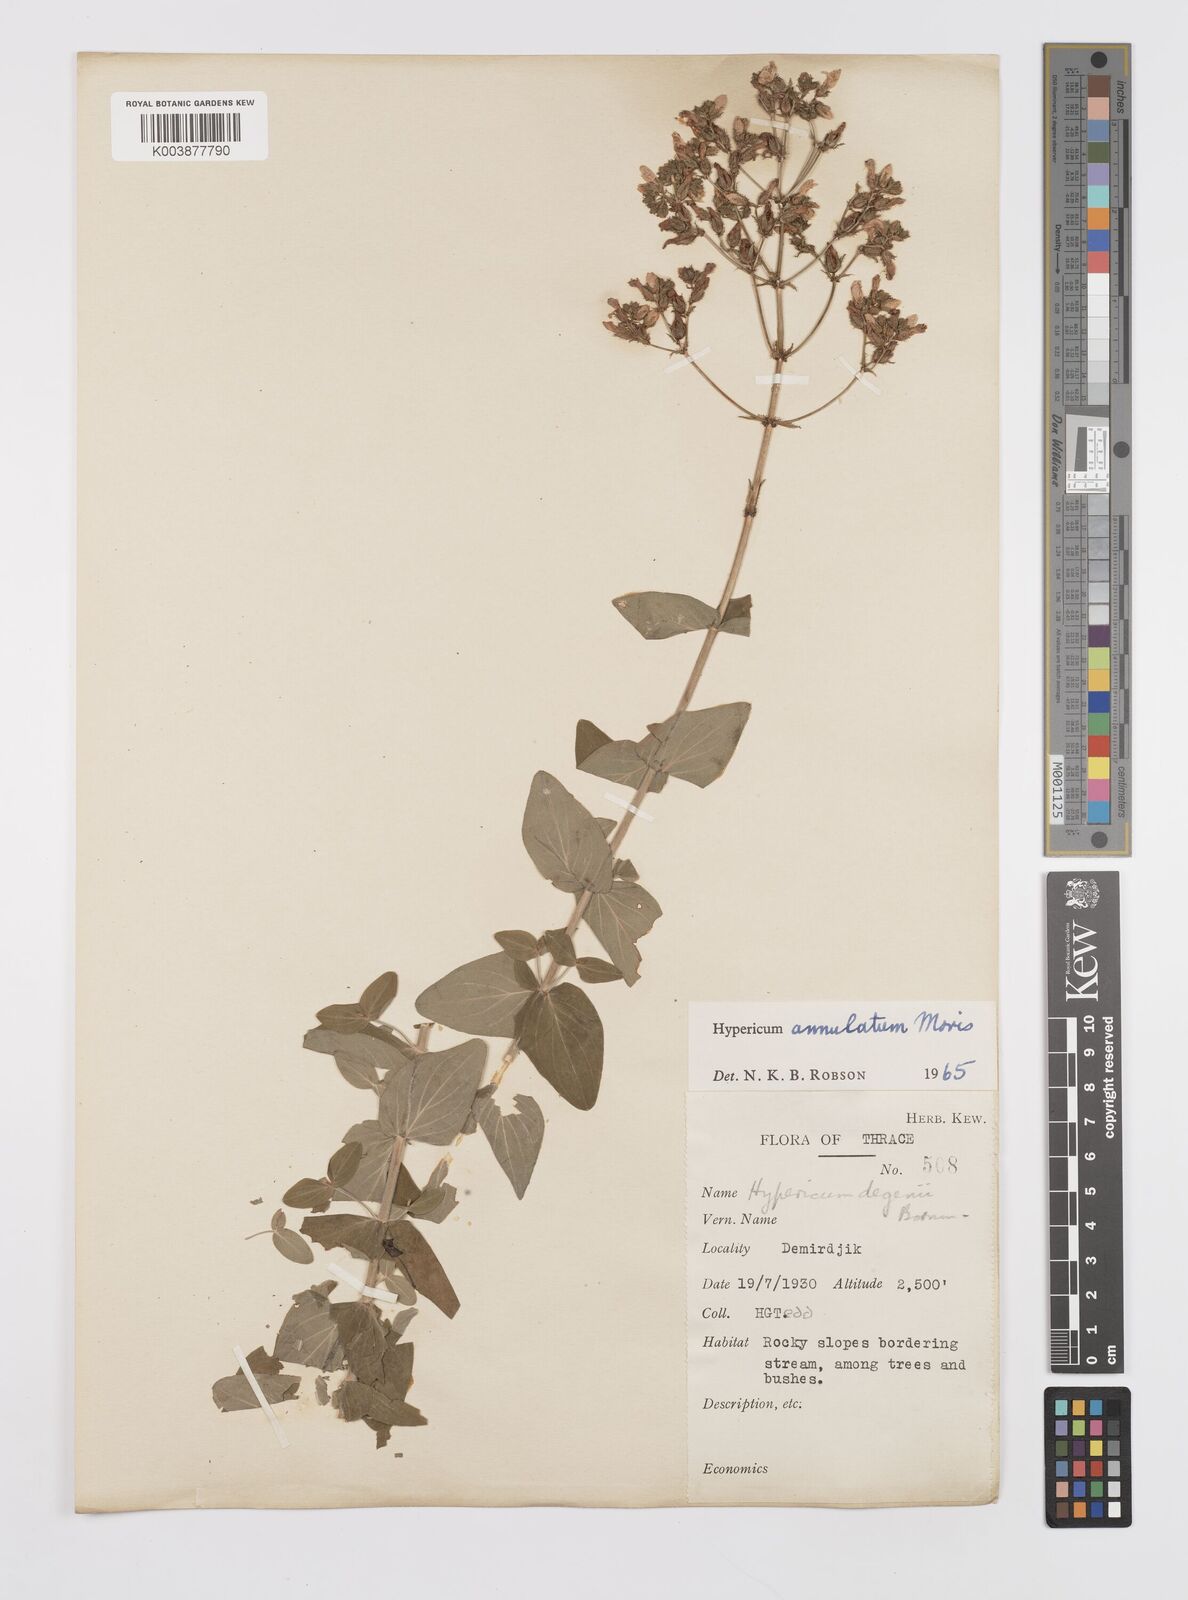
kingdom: Plantae
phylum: Tracheophyta
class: Magnoliopsida
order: Malpighiales
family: Hypericaceae
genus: Hypericum
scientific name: Hypericum annulatum
